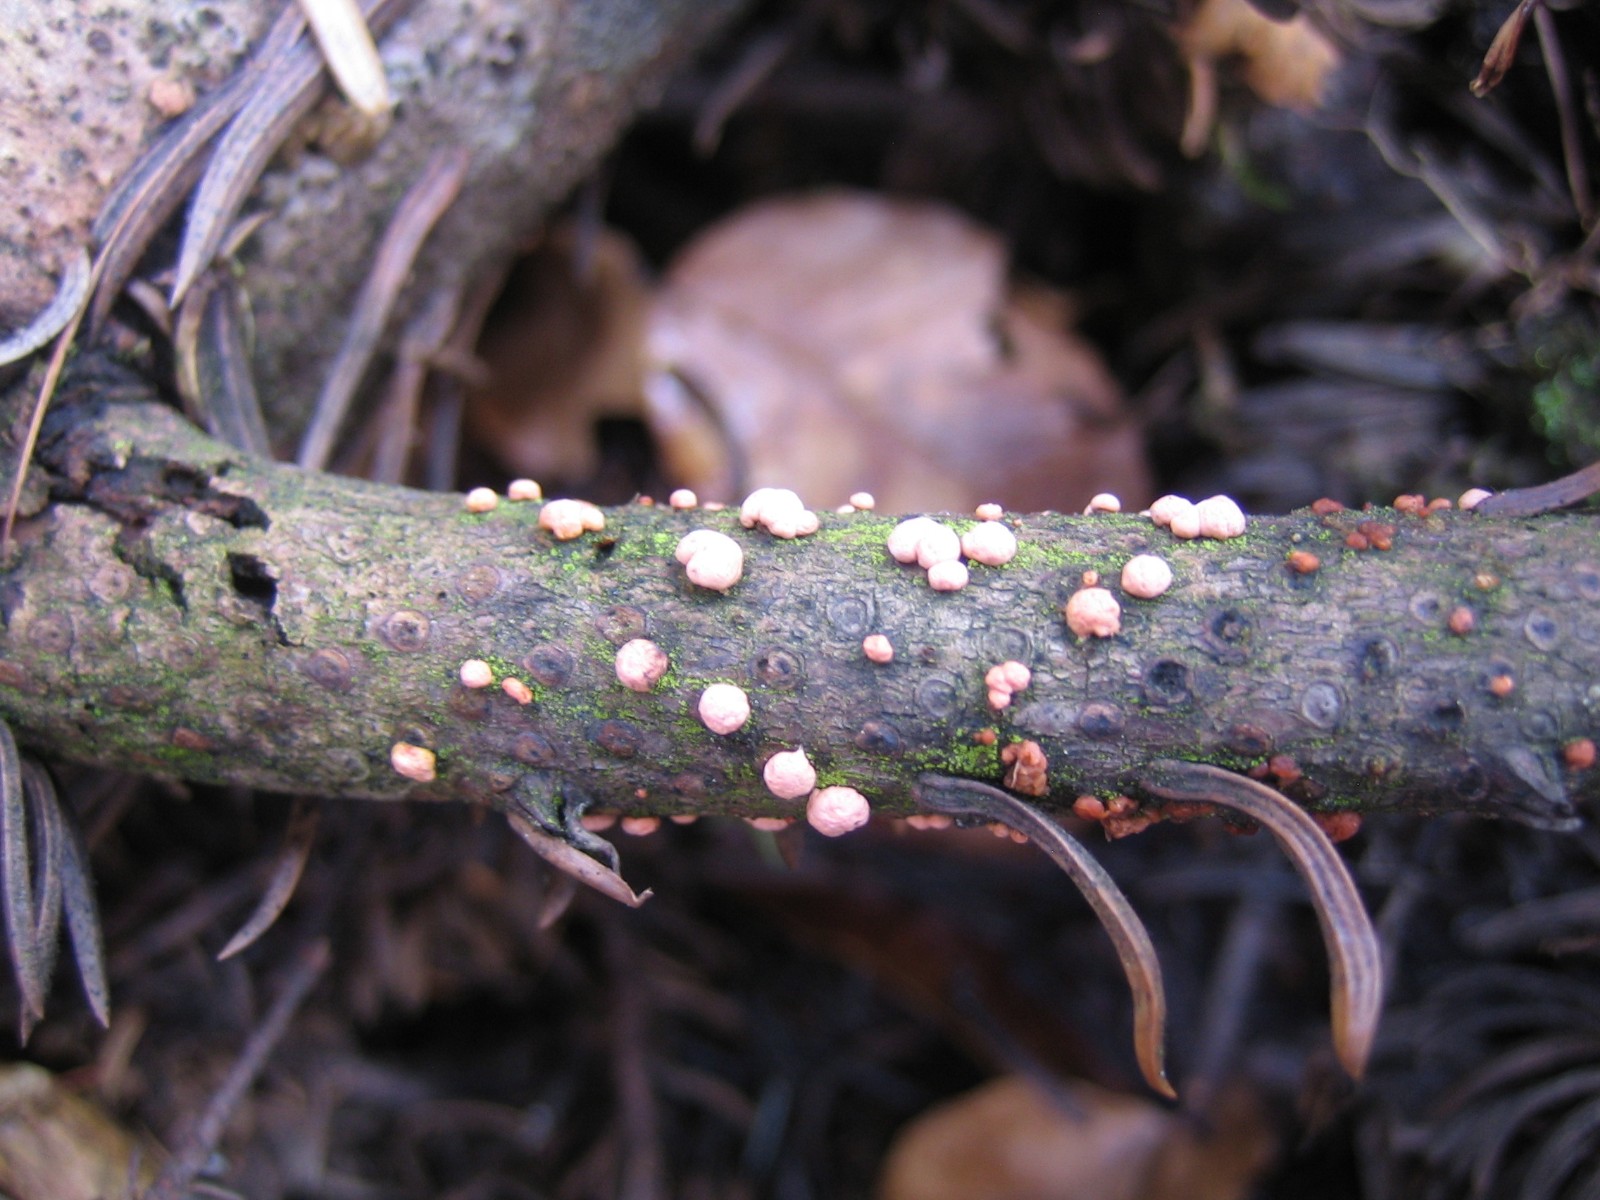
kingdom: Fungi
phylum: Ascomycota
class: Sordariomycetes
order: Hypocreales
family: Nectriaceae
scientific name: Nectriaceae
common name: cinnobersvampfamilien
